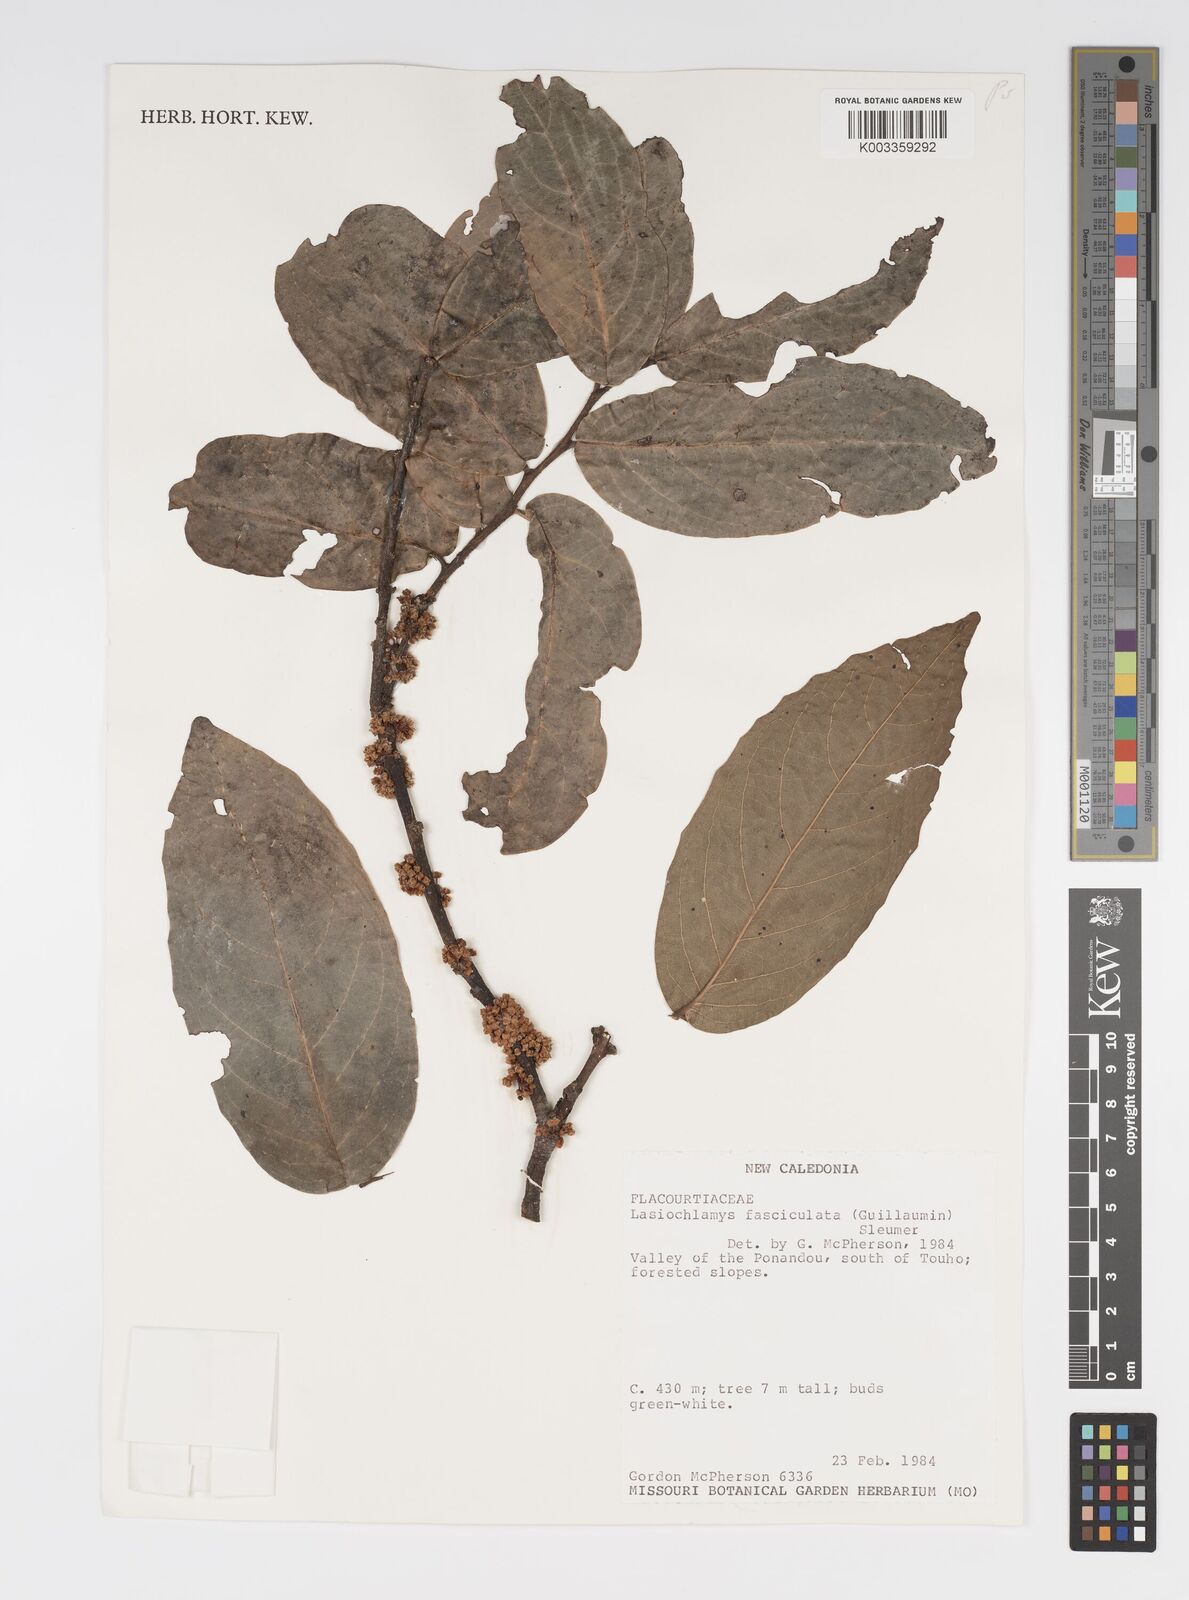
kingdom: Plantae
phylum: Tracheophyta
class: Magnoliopsida
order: Malpighiales
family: Salicaceae
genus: Lasiochlamys
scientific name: Lasiochlamys fasciculata
